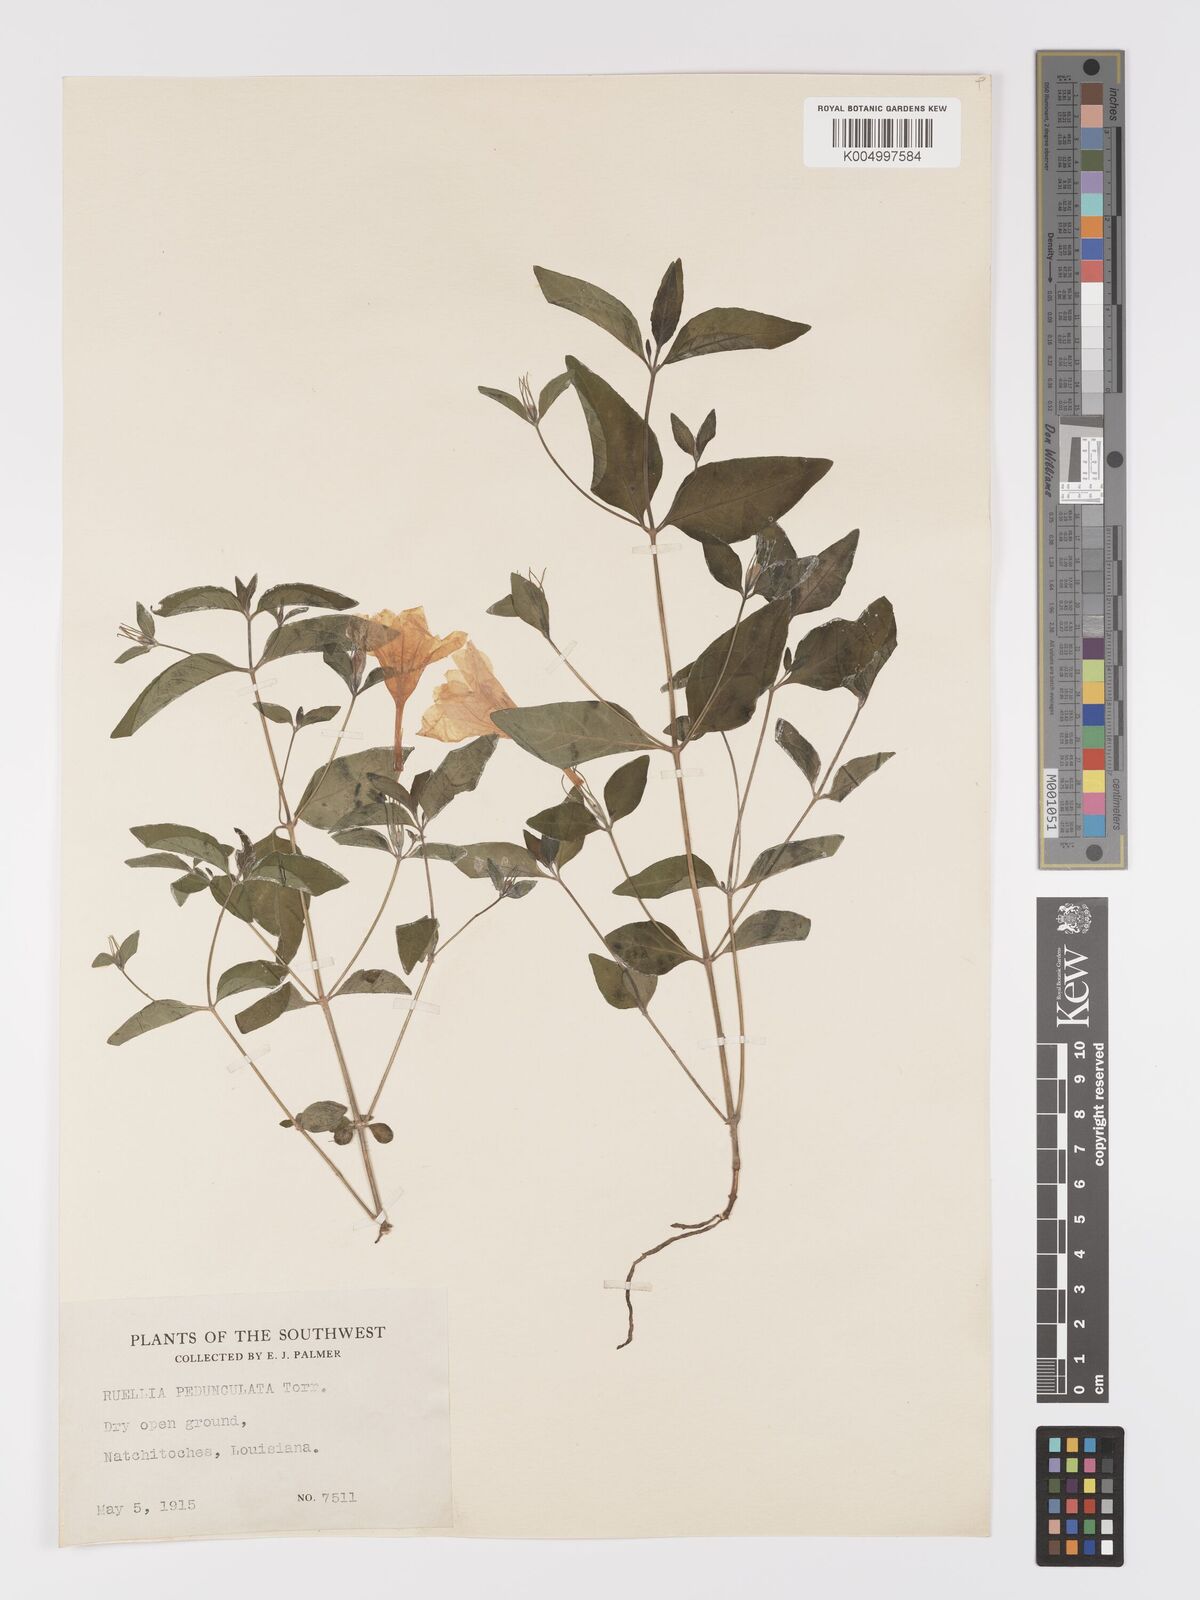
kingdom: Plantae
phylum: Tracheophyta
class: Magnoliopsida
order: Lamiales
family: Acanthaceae
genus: Ruellia
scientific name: Ruellia pedunculata
